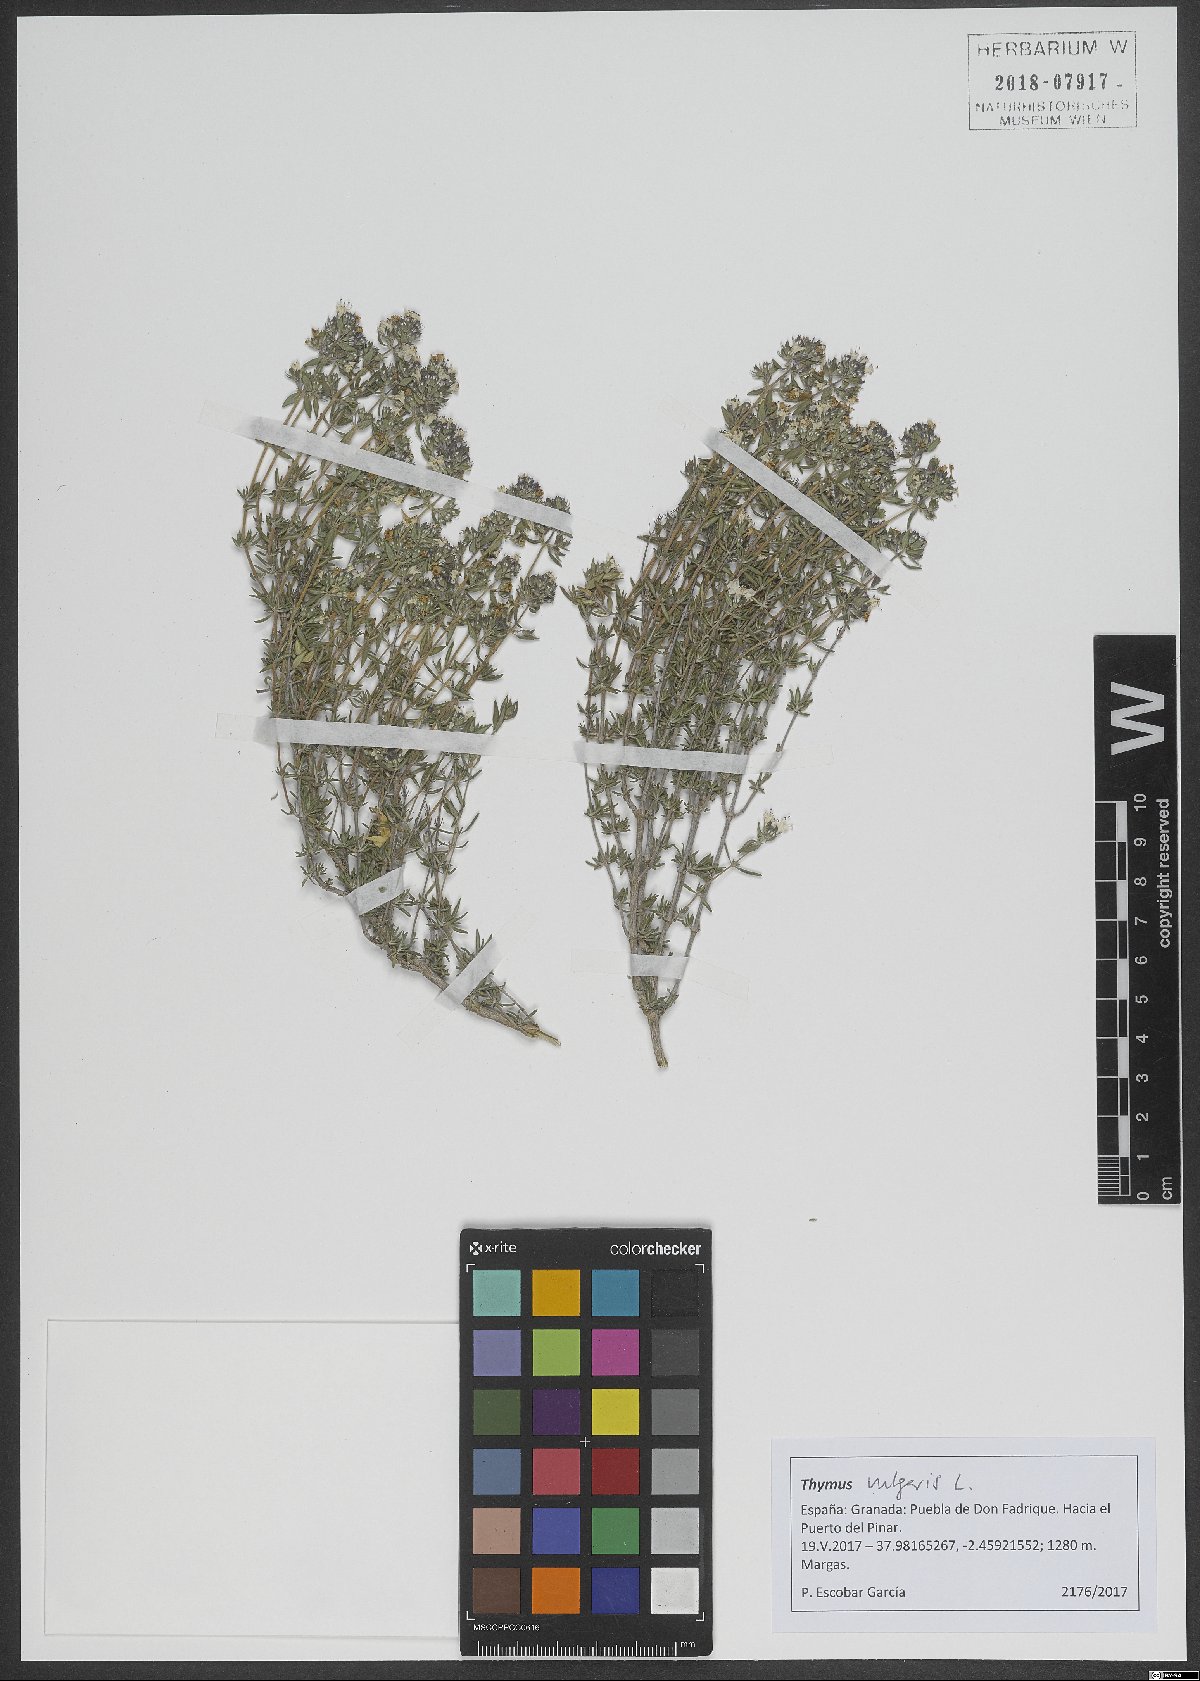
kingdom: Plantae
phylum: Tracheophyta
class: Magnoliopsida
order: Lamiales
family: Lamiaceae
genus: Thymus
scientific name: Thymus vulgaris
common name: Garden thyme
